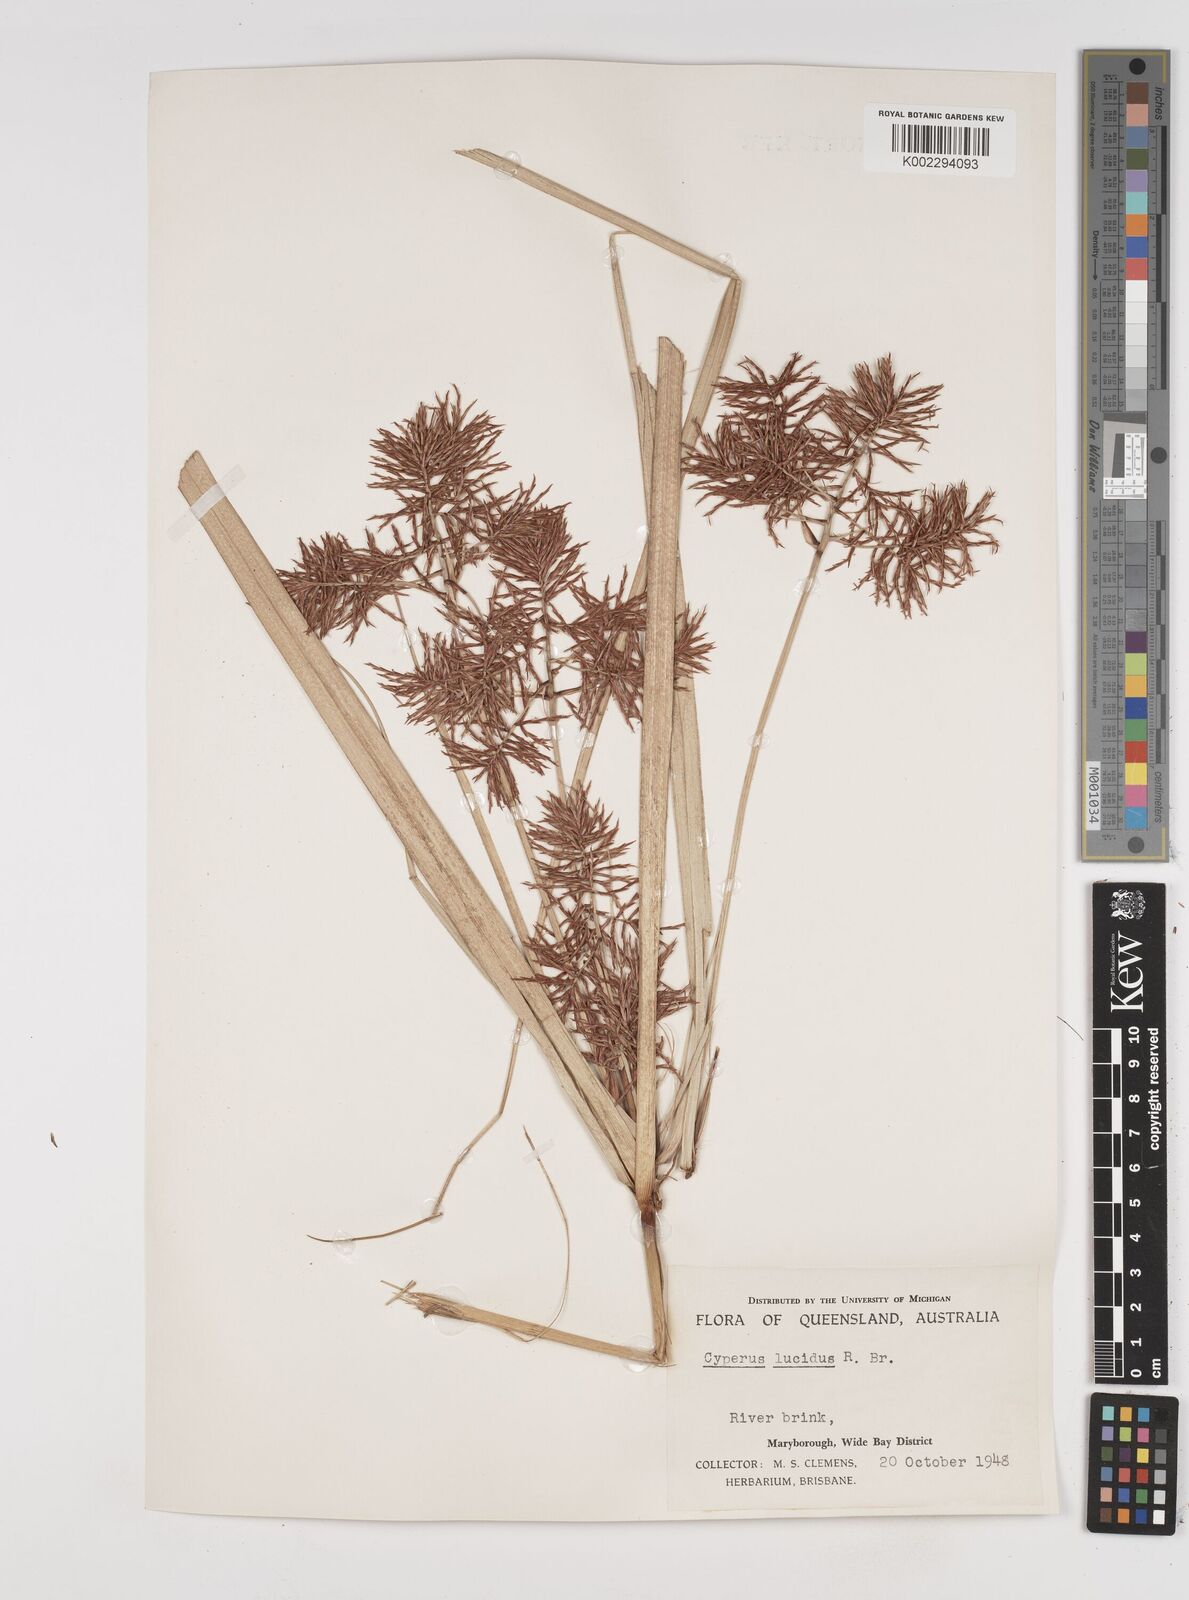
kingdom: Plantae
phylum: Tracheophyta
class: Liliopsida
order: Poales
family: Cyperaceae
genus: Cyperus
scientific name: Cyperus lucidus
